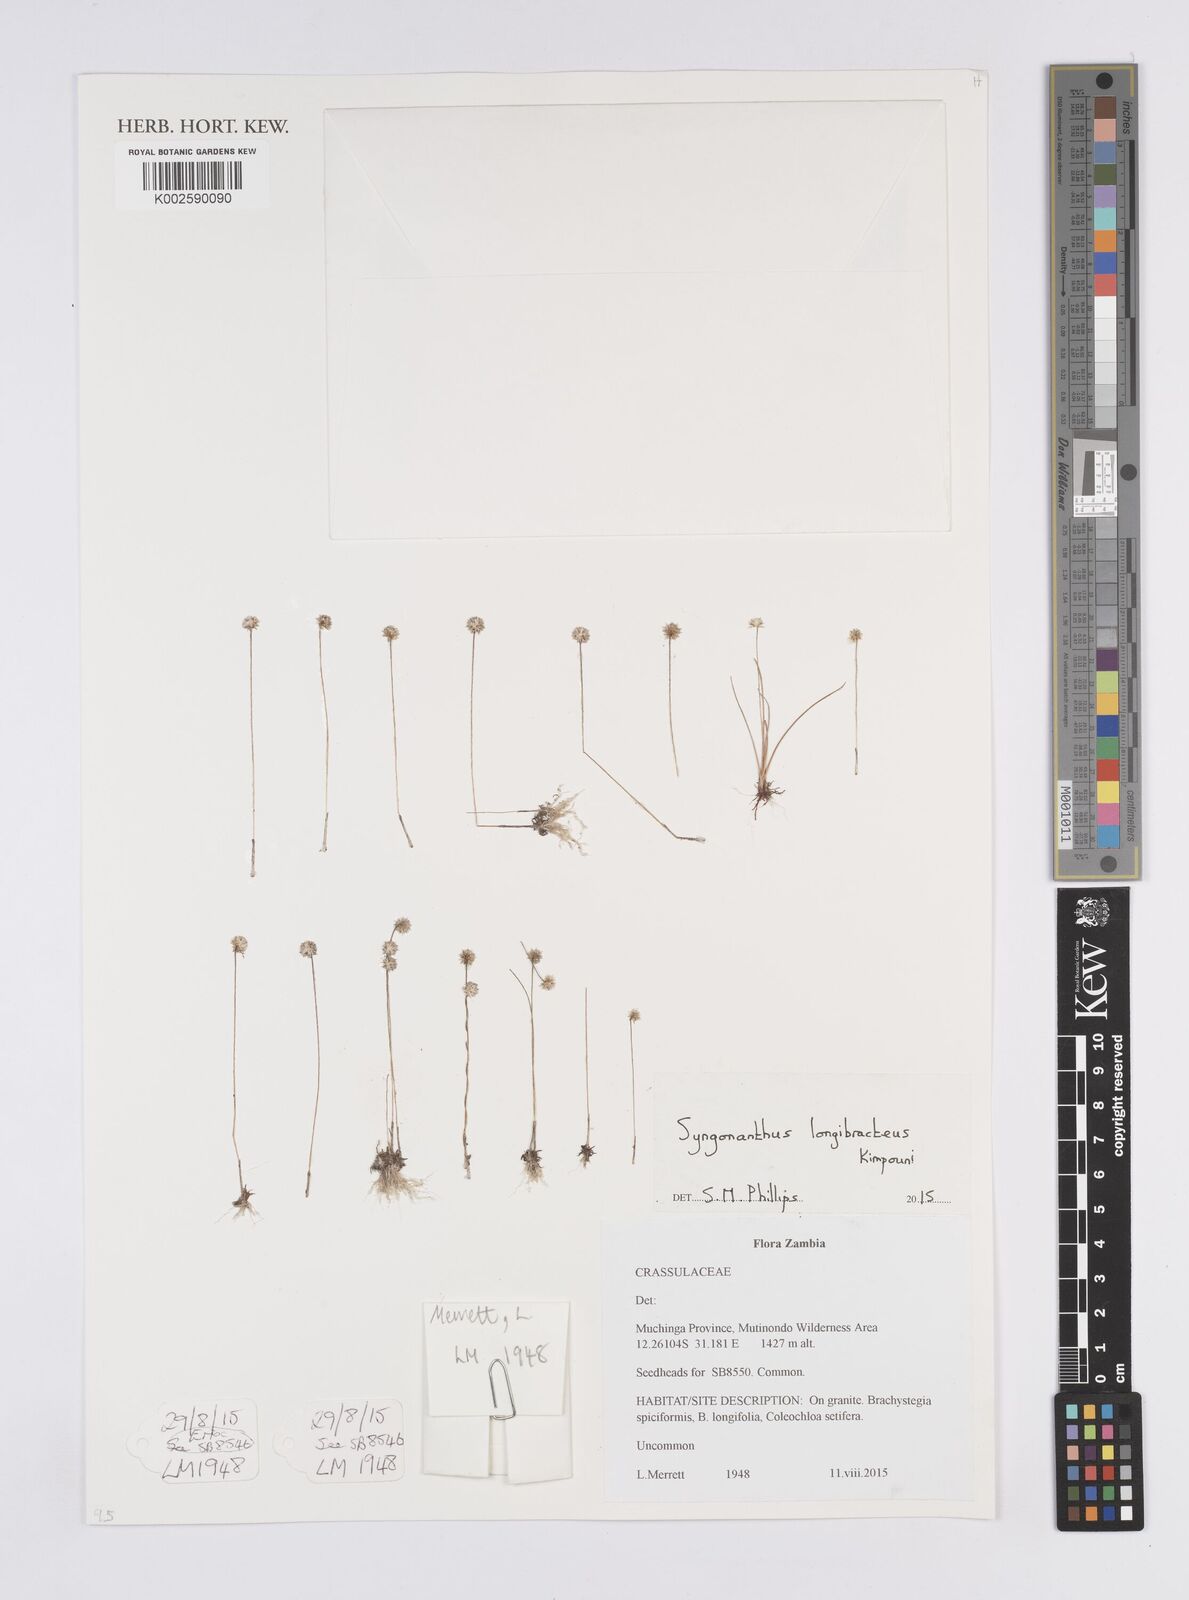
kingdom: Plantae
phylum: Tracheophyta
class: Liliopsida
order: Poales
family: Eriocaulaceae
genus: Syngonanthus
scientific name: Syngonanthus longibracteatus
